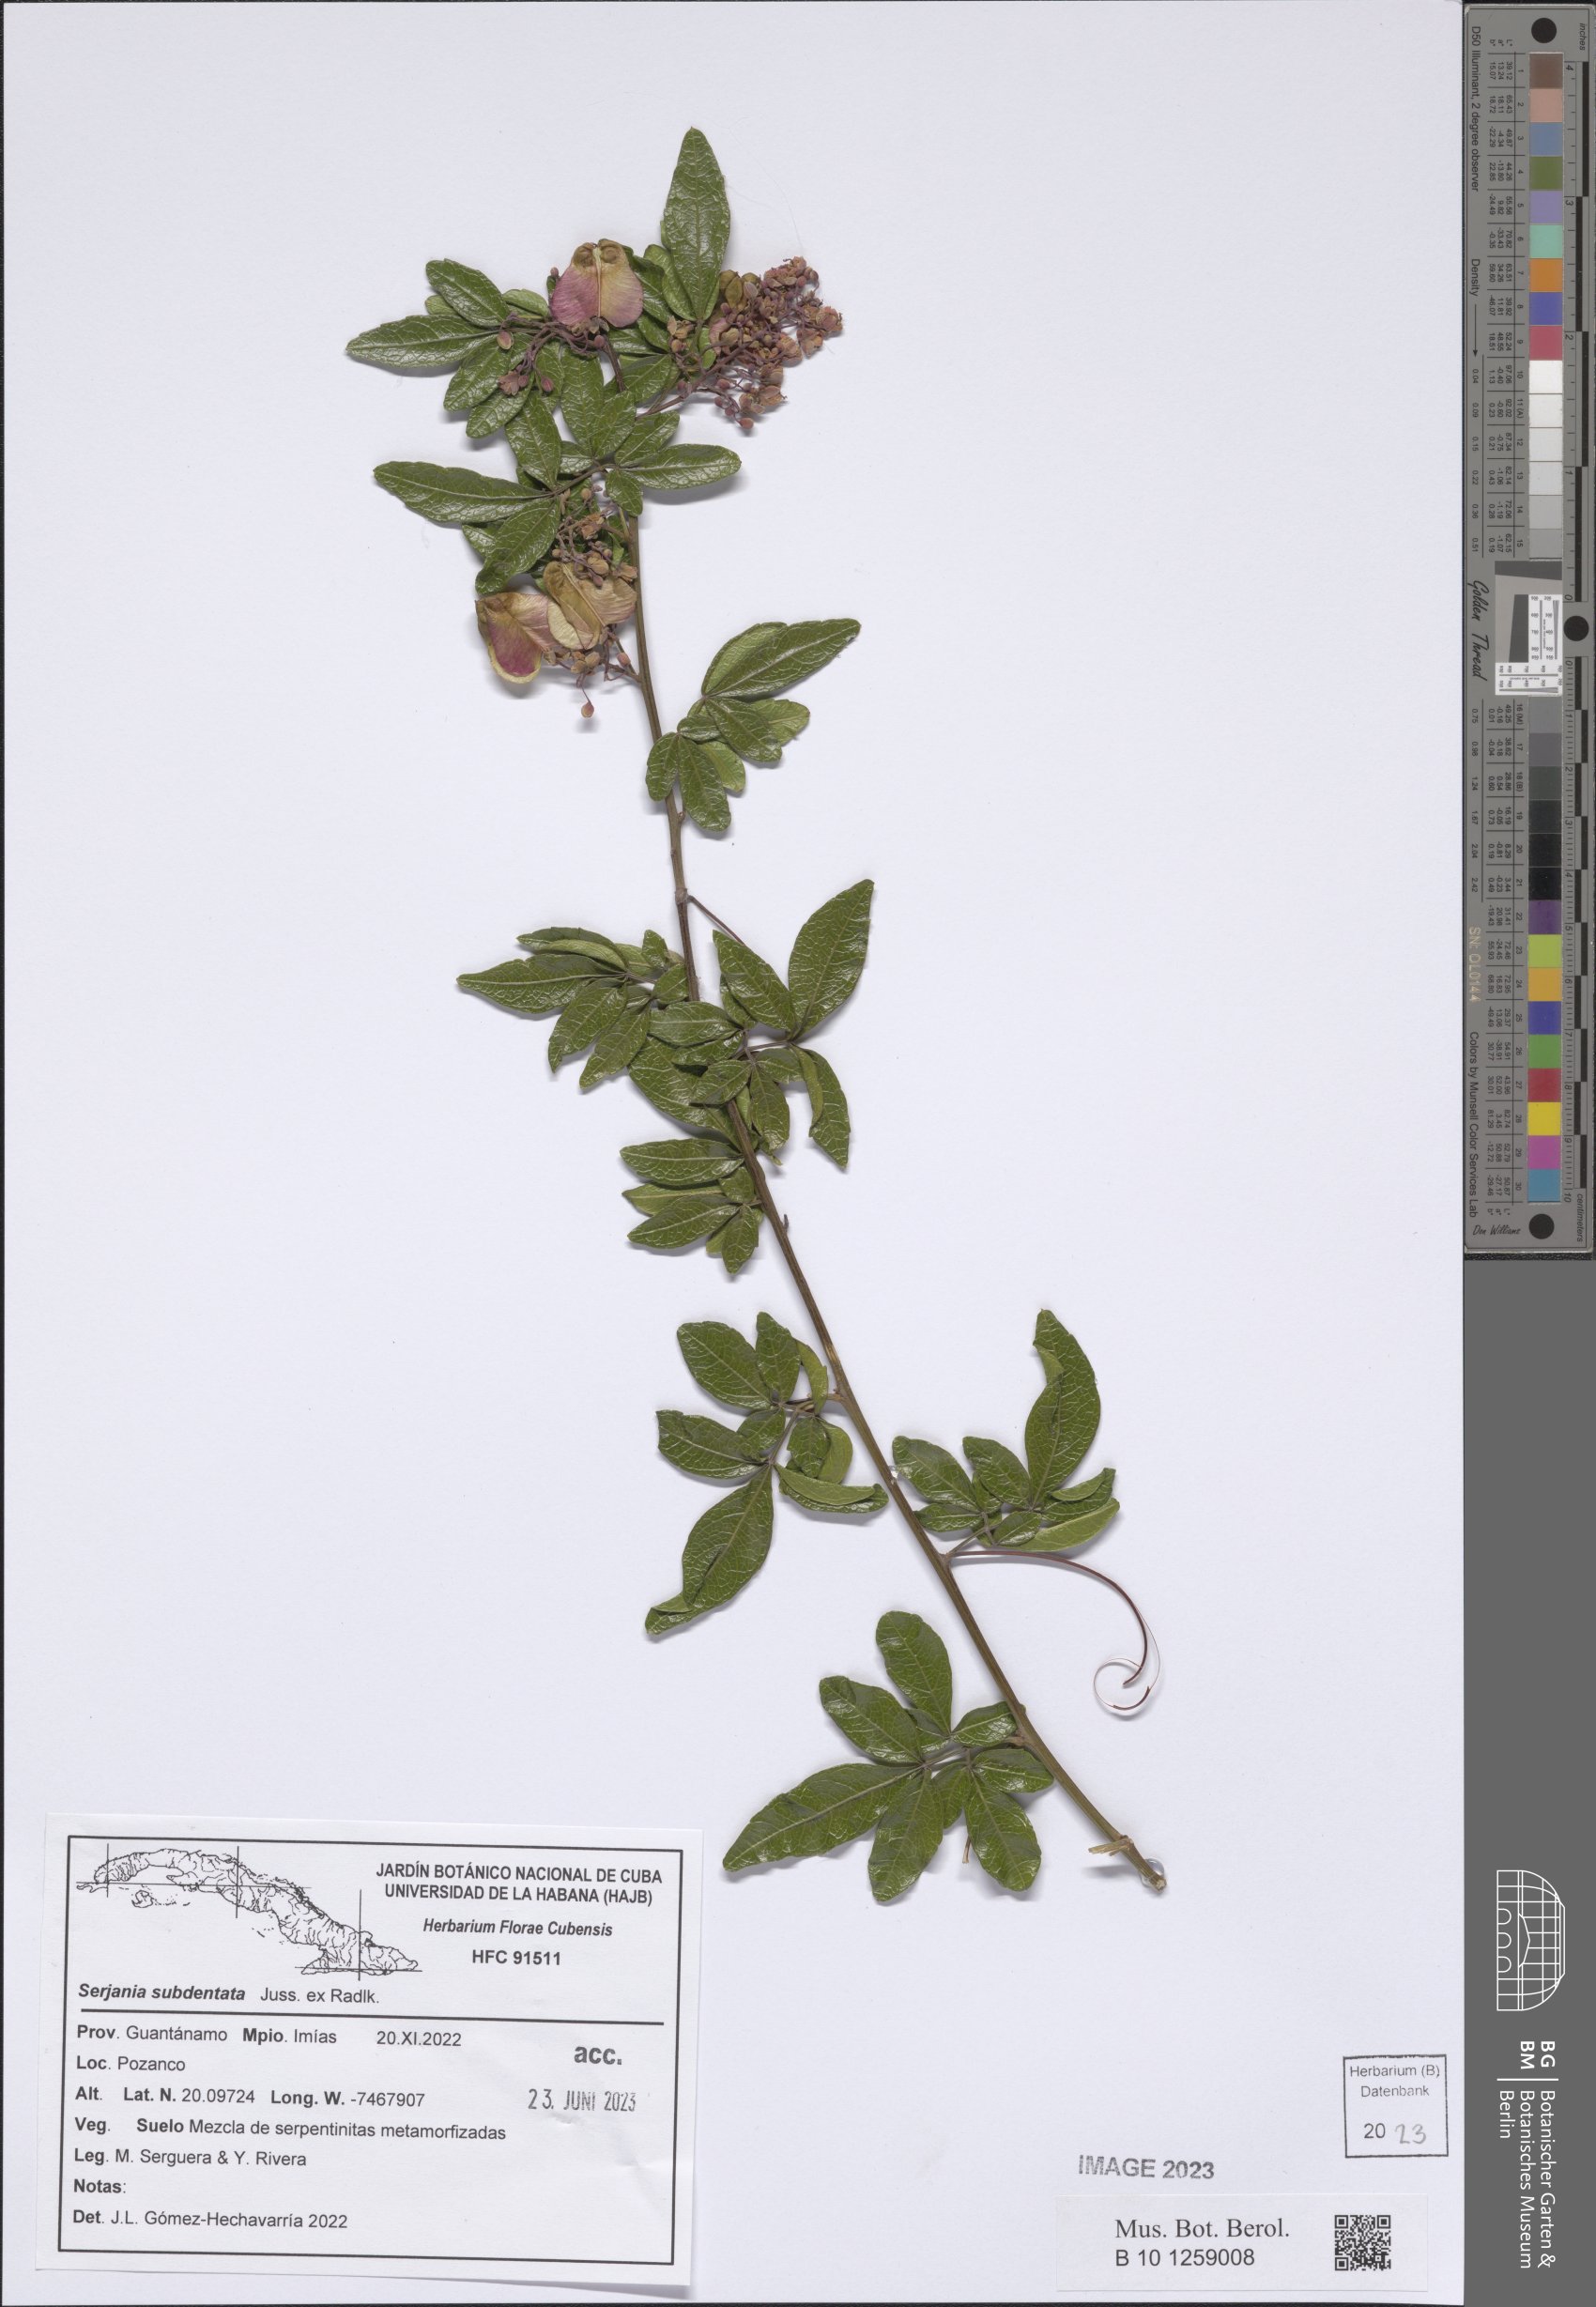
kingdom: Plantae
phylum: Tracheophyta
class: Magnoliopsida
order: Sapindales
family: Sapindaceae
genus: Serjania
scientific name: Serjania subdentata
